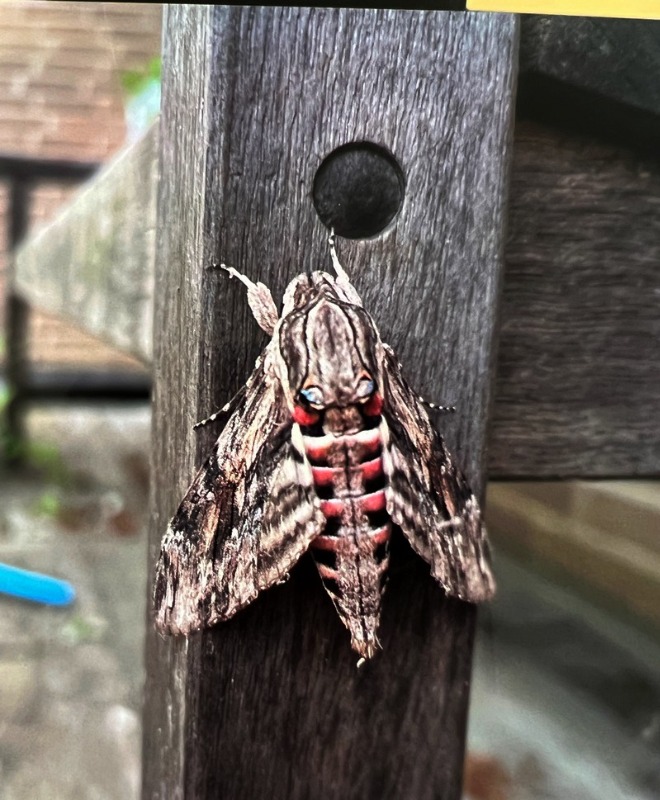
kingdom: Animalia
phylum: Arthropoda
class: Insecta
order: Lepidoptera
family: Sphingidae
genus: Agrius
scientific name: Agrius convolvuli
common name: Snerlesværmer
